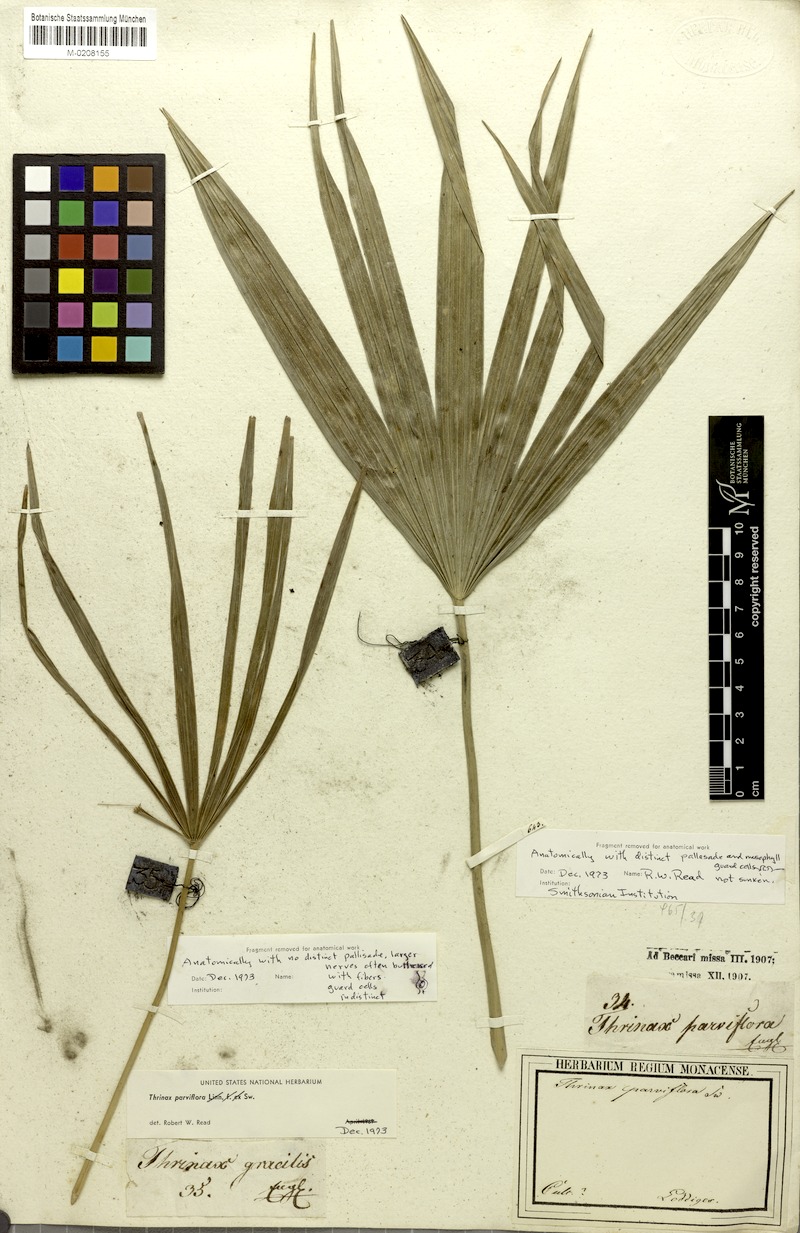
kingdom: Plantae
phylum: Tracheophyta
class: Liliopsida
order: Arecales
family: Arecaceae
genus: Thrinax
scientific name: Thrinax parviflora
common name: Broom palm
